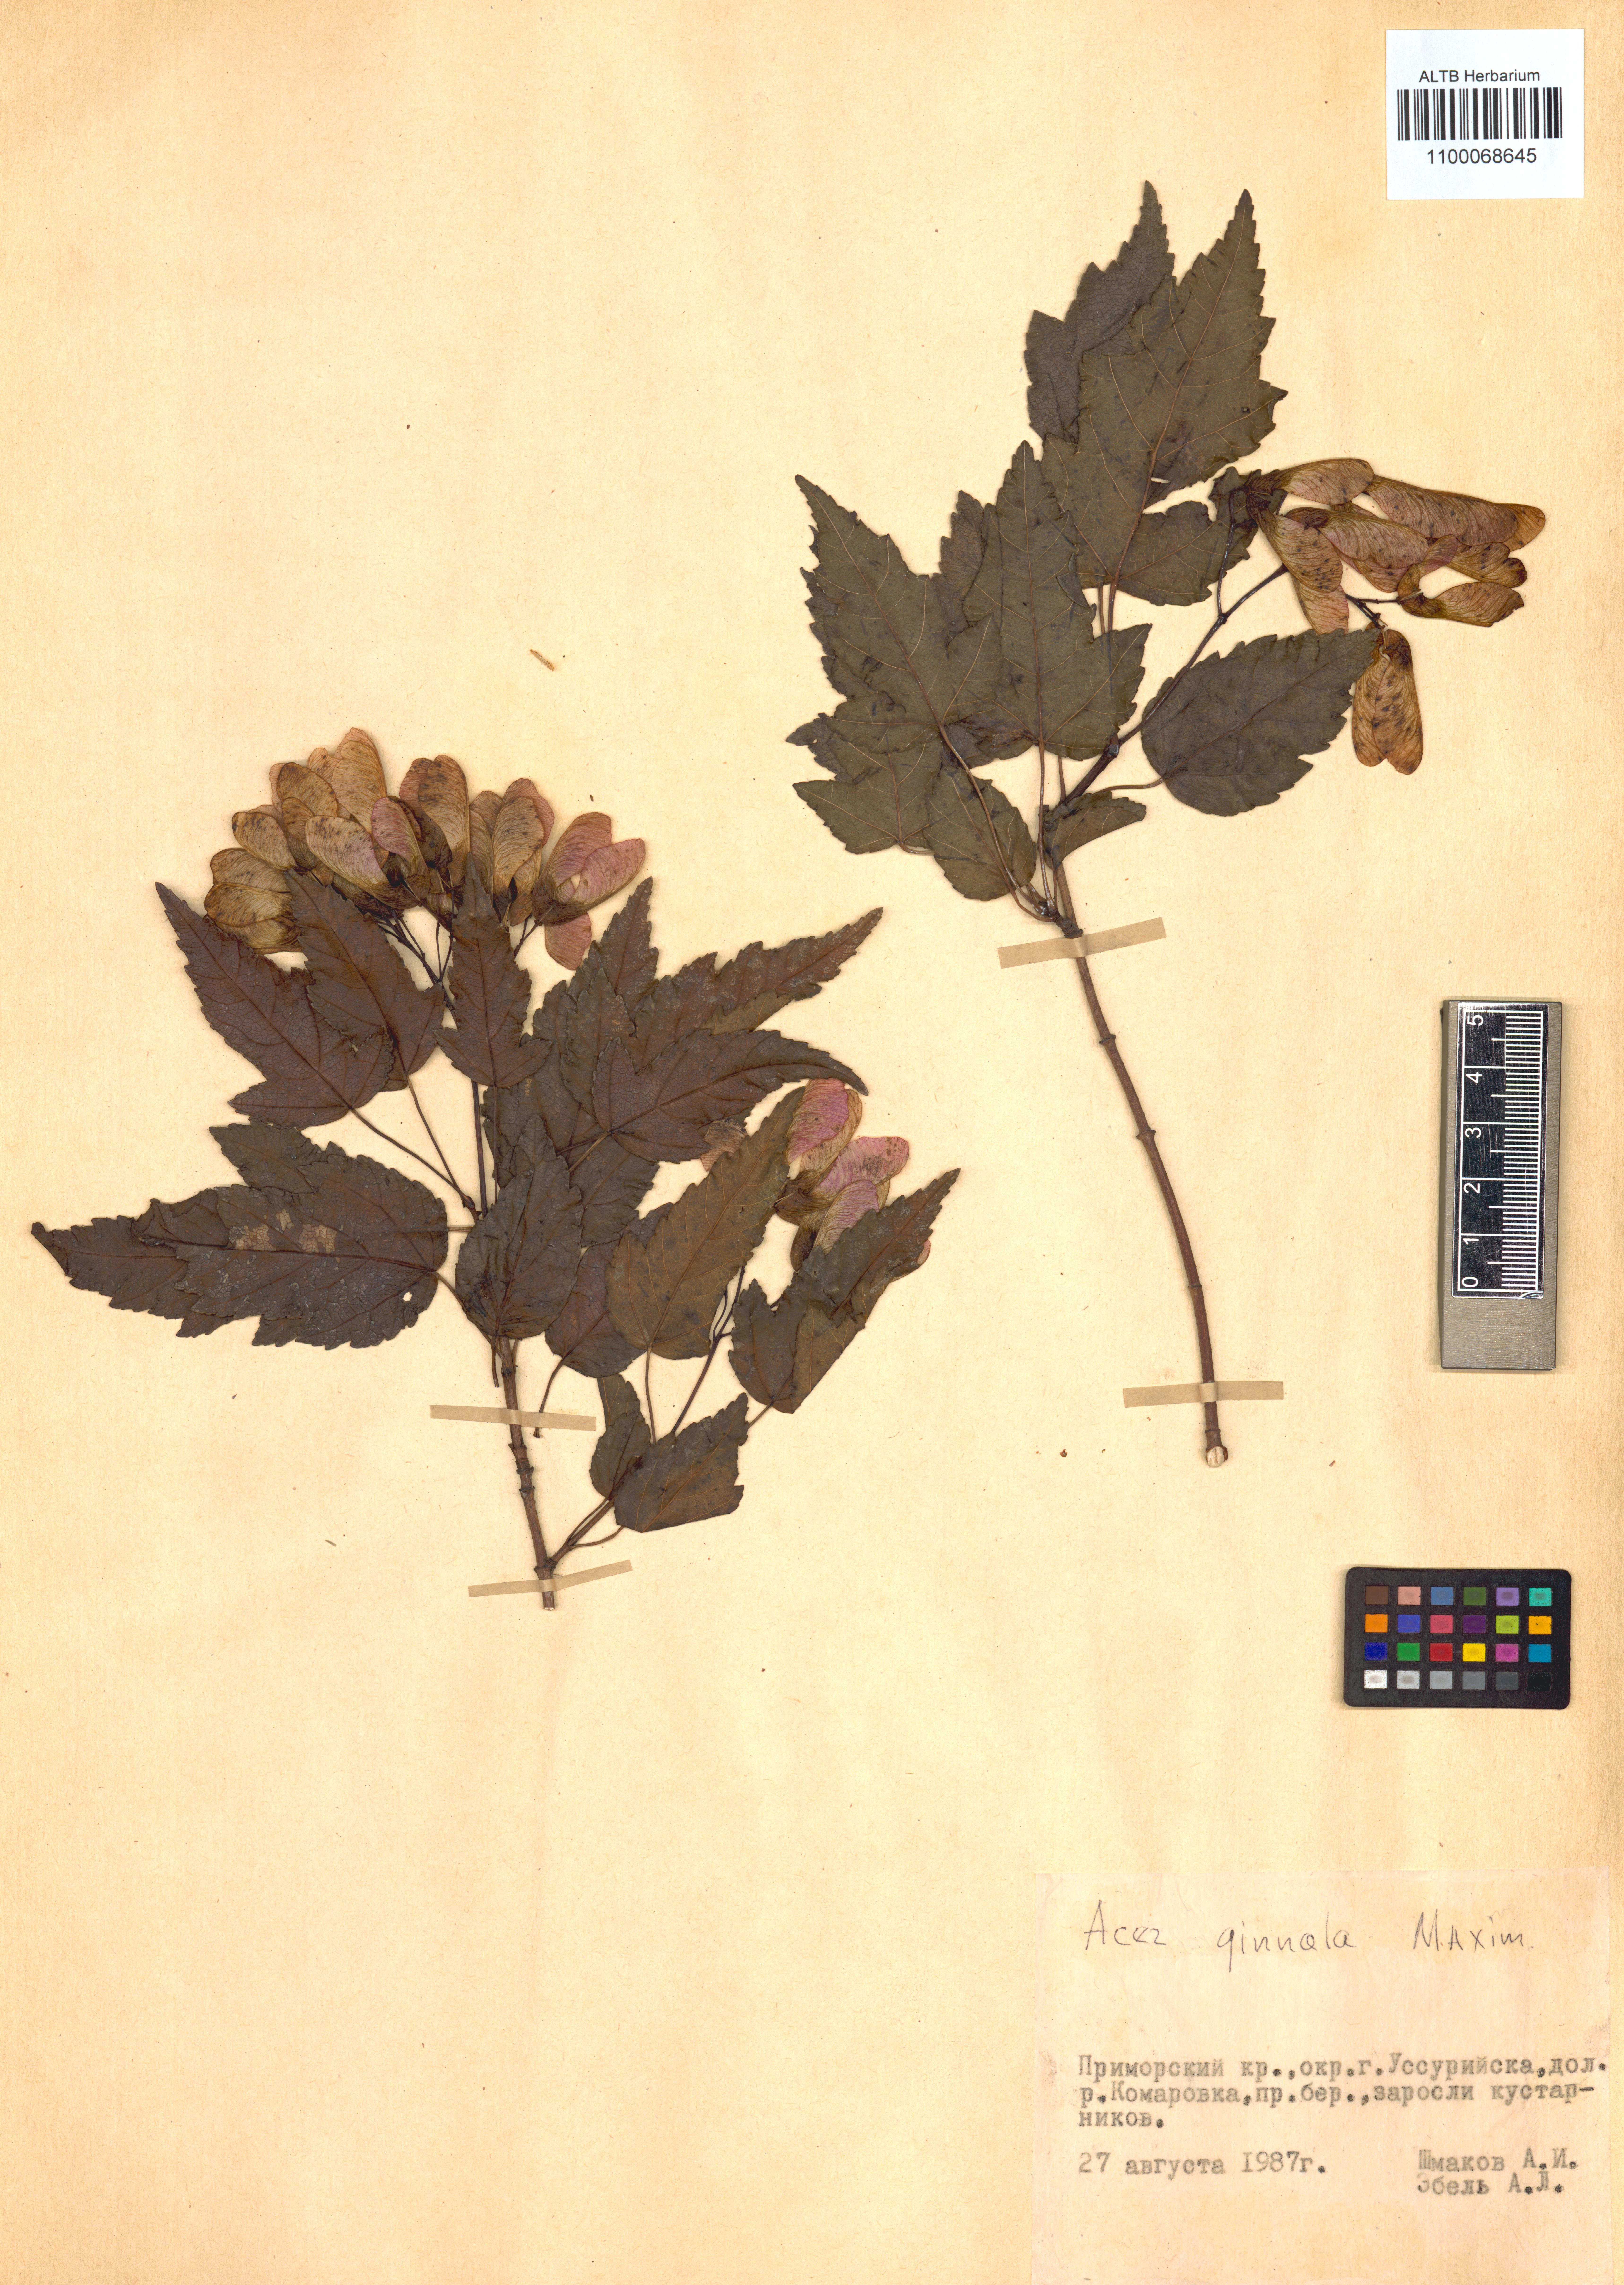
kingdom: Plantae
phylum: Tracheophyta
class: Magnoliopsida
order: Sapindales
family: Sapindaceae
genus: Acer
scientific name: Acer tataricum
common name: Tartar maple
